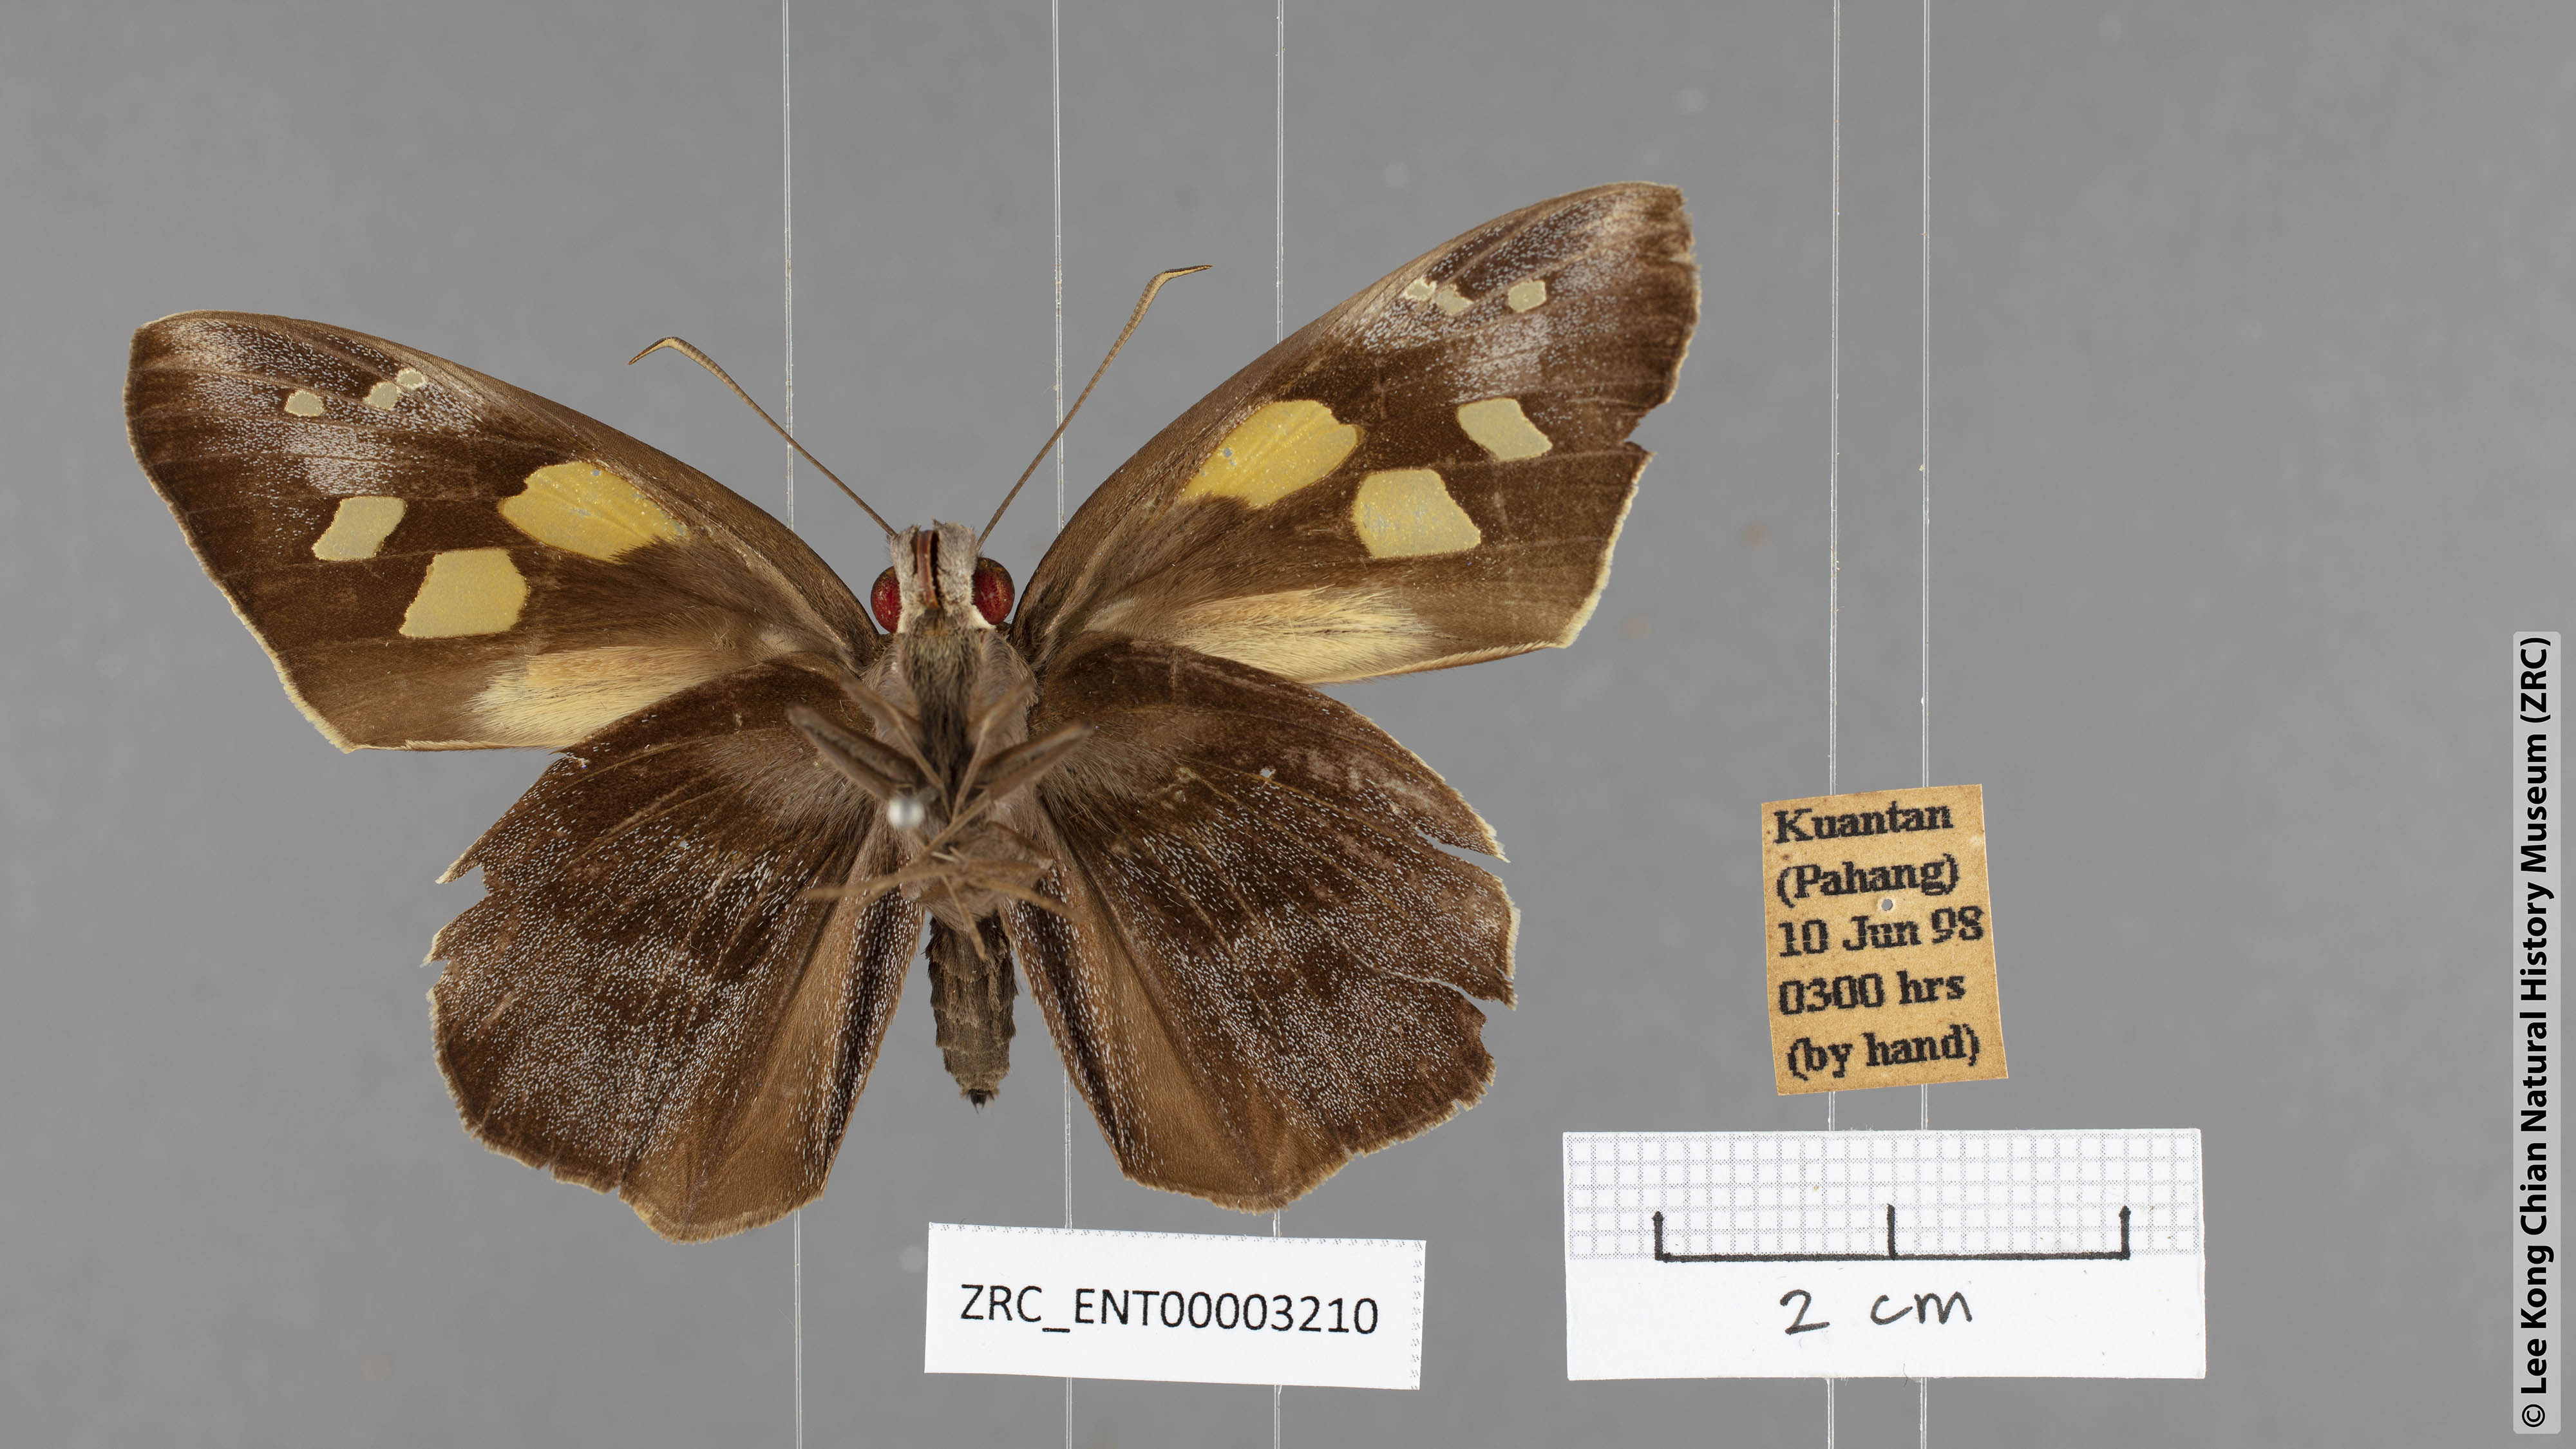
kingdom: Animalia
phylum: Arthropoda
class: Insecta
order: Lepidoptera
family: Hesperiidae
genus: Gangara
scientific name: Gangara thyrsis
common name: Giant redeye
